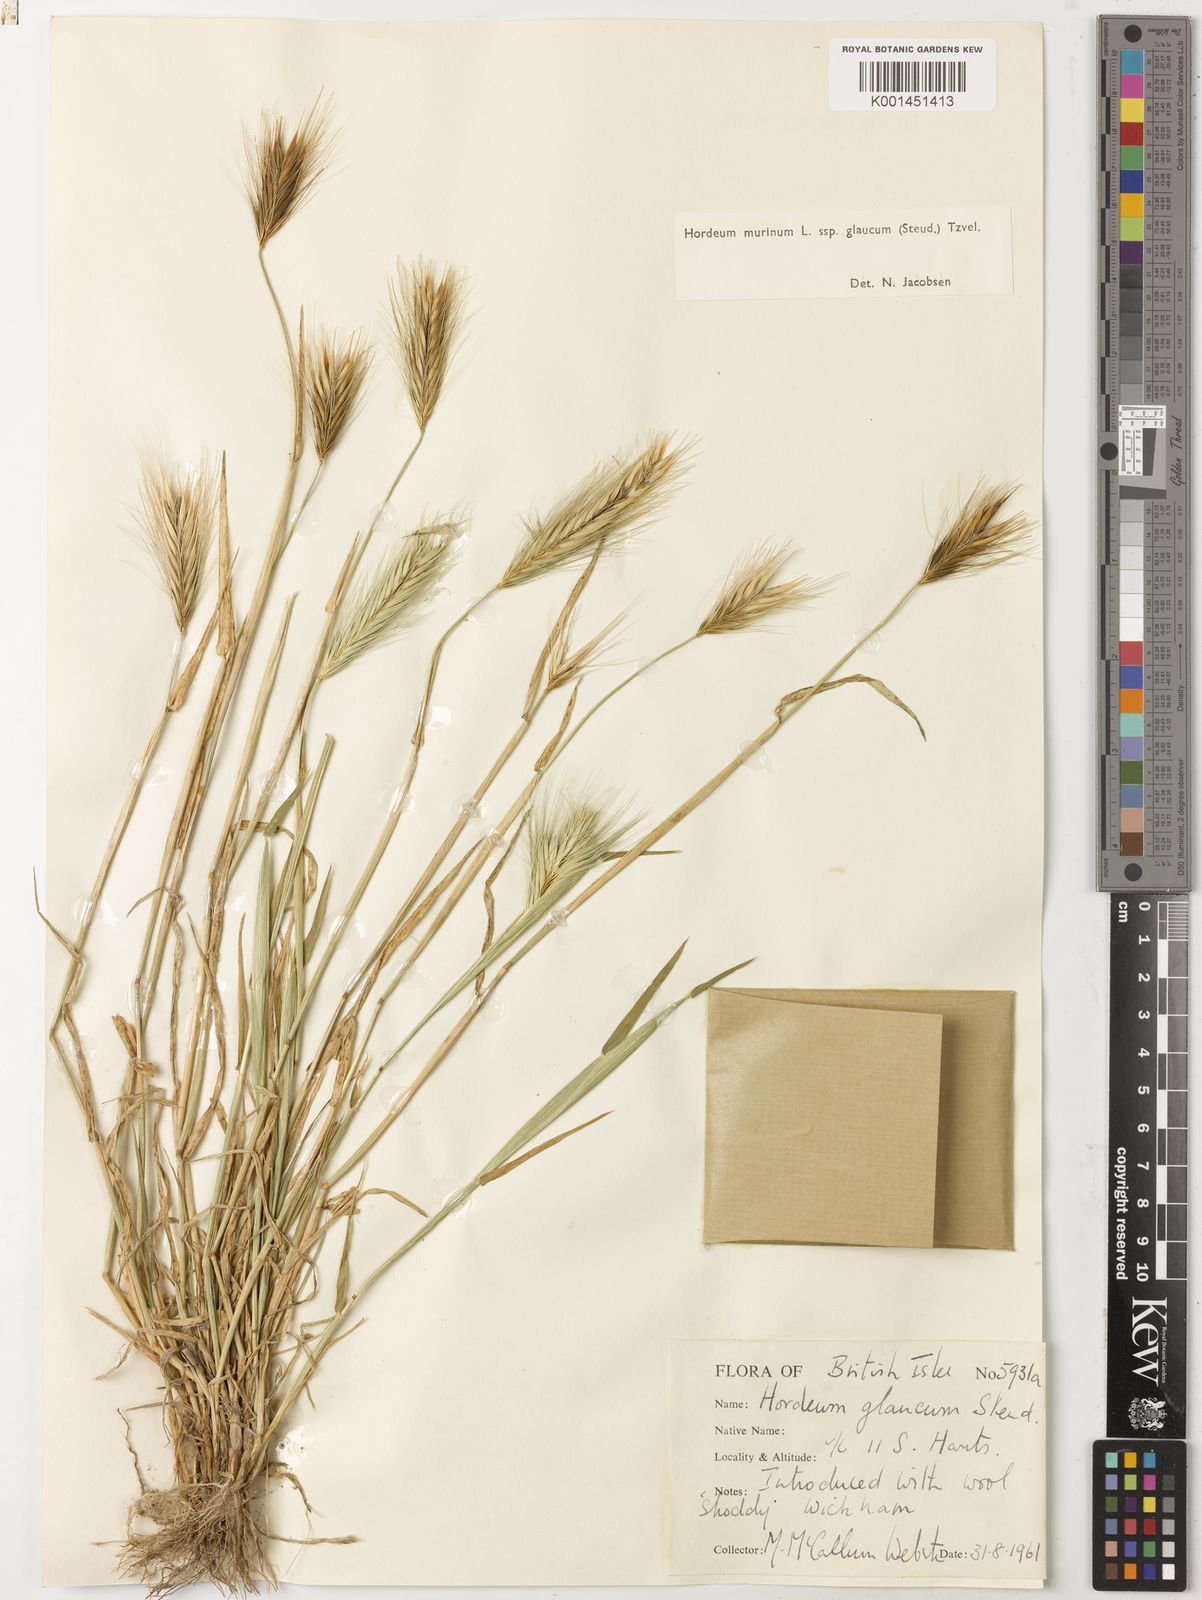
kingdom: Plantae
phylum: Tracheophyta
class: Liliopsida
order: Poales
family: Poaceae
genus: Hordeum
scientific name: Hordeum murinum
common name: Wall barley
